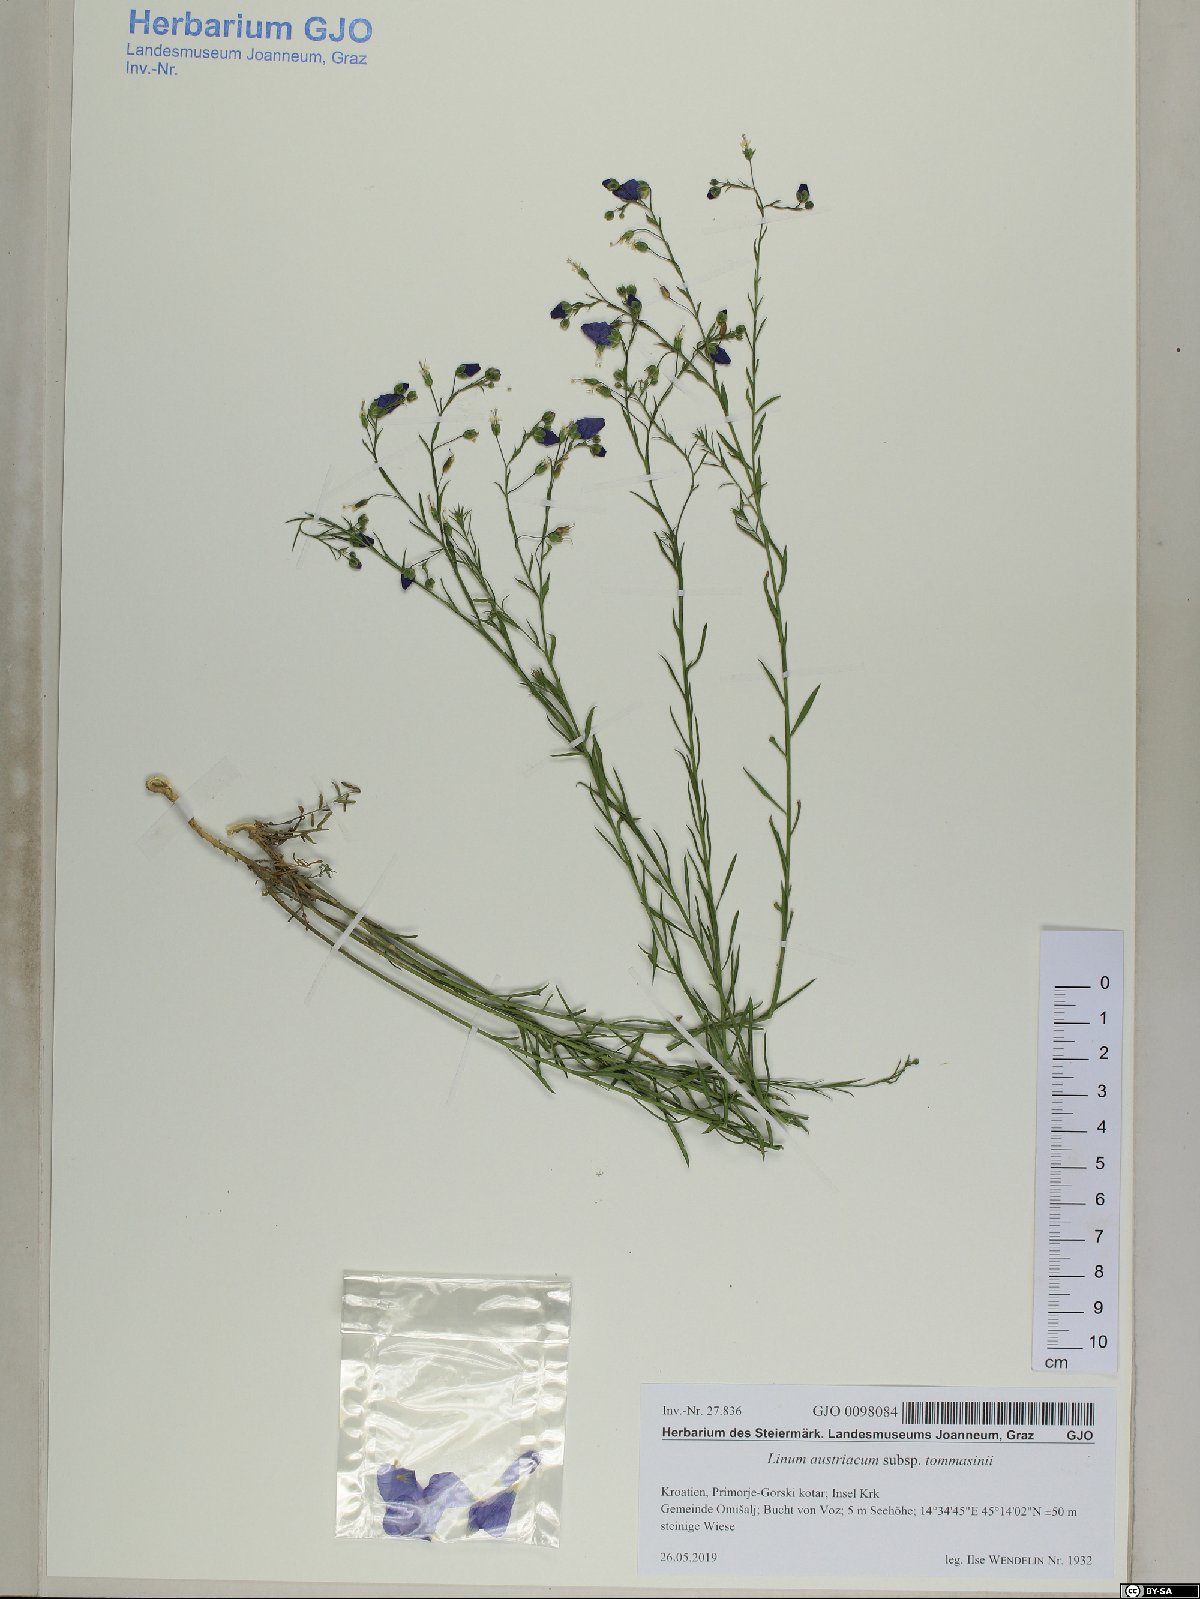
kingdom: Plantae
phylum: Tracheophyta
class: Magnoliopsida
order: Malpighiales
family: Linaceae
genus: Linum
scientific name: Linum austriacum
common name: Austrian flax
